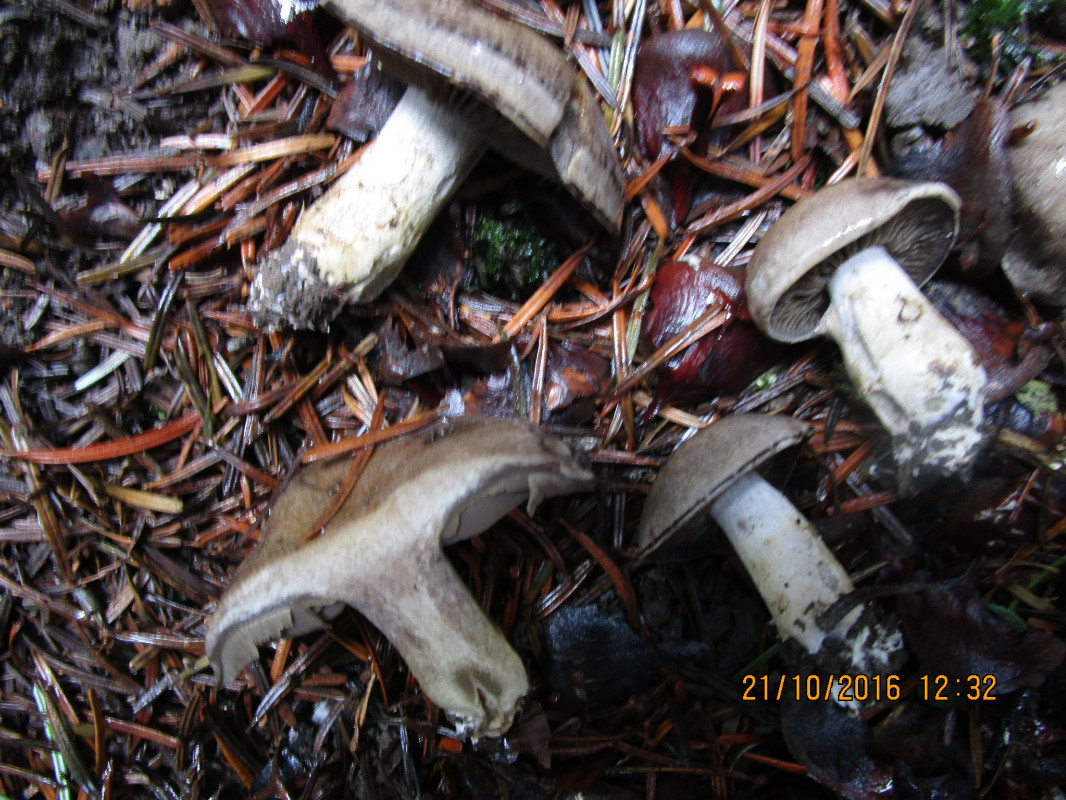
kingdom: Fungi
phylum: Basidiomycota
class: Agaricomycetes
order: Agaricales
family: Cortinariaceae
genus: Cortinarius
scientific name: Cortinarius
